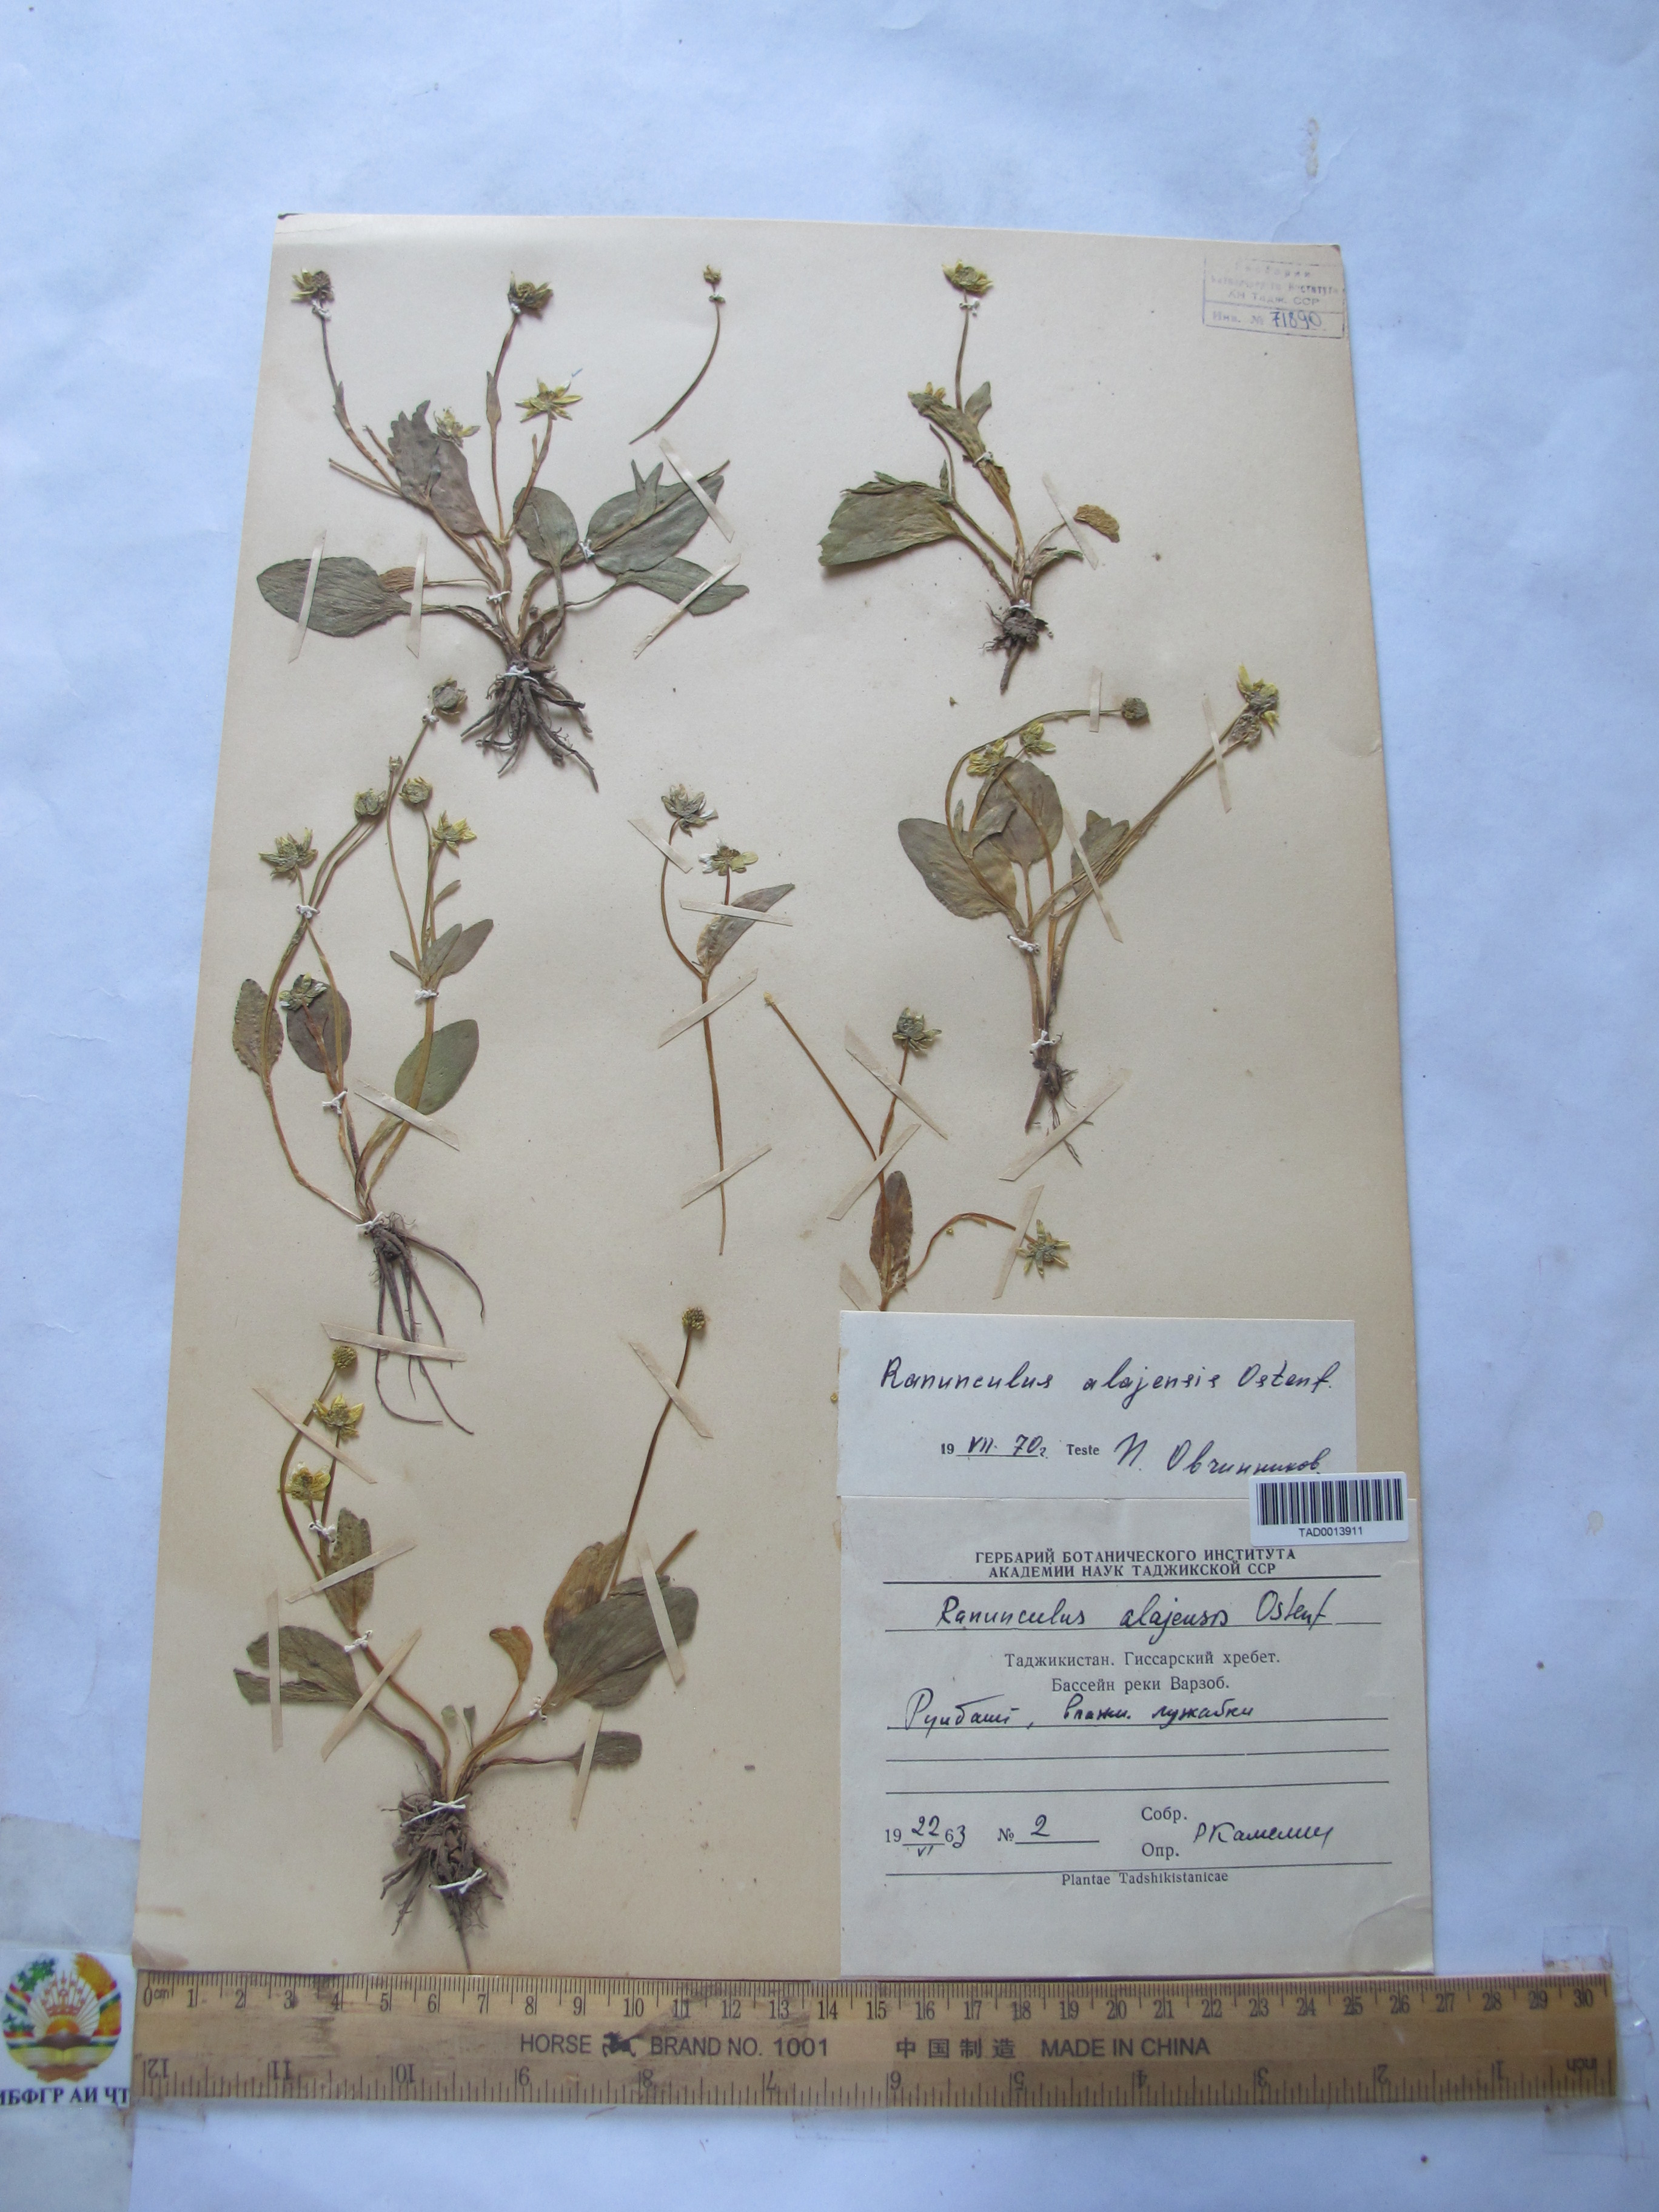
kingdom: Plantae
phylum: Tracheophyta
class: Magnoliopsida
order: Ranunculales
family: Ranunculaceae
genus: Ranunculus
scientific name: Ranunculus alaiensis
